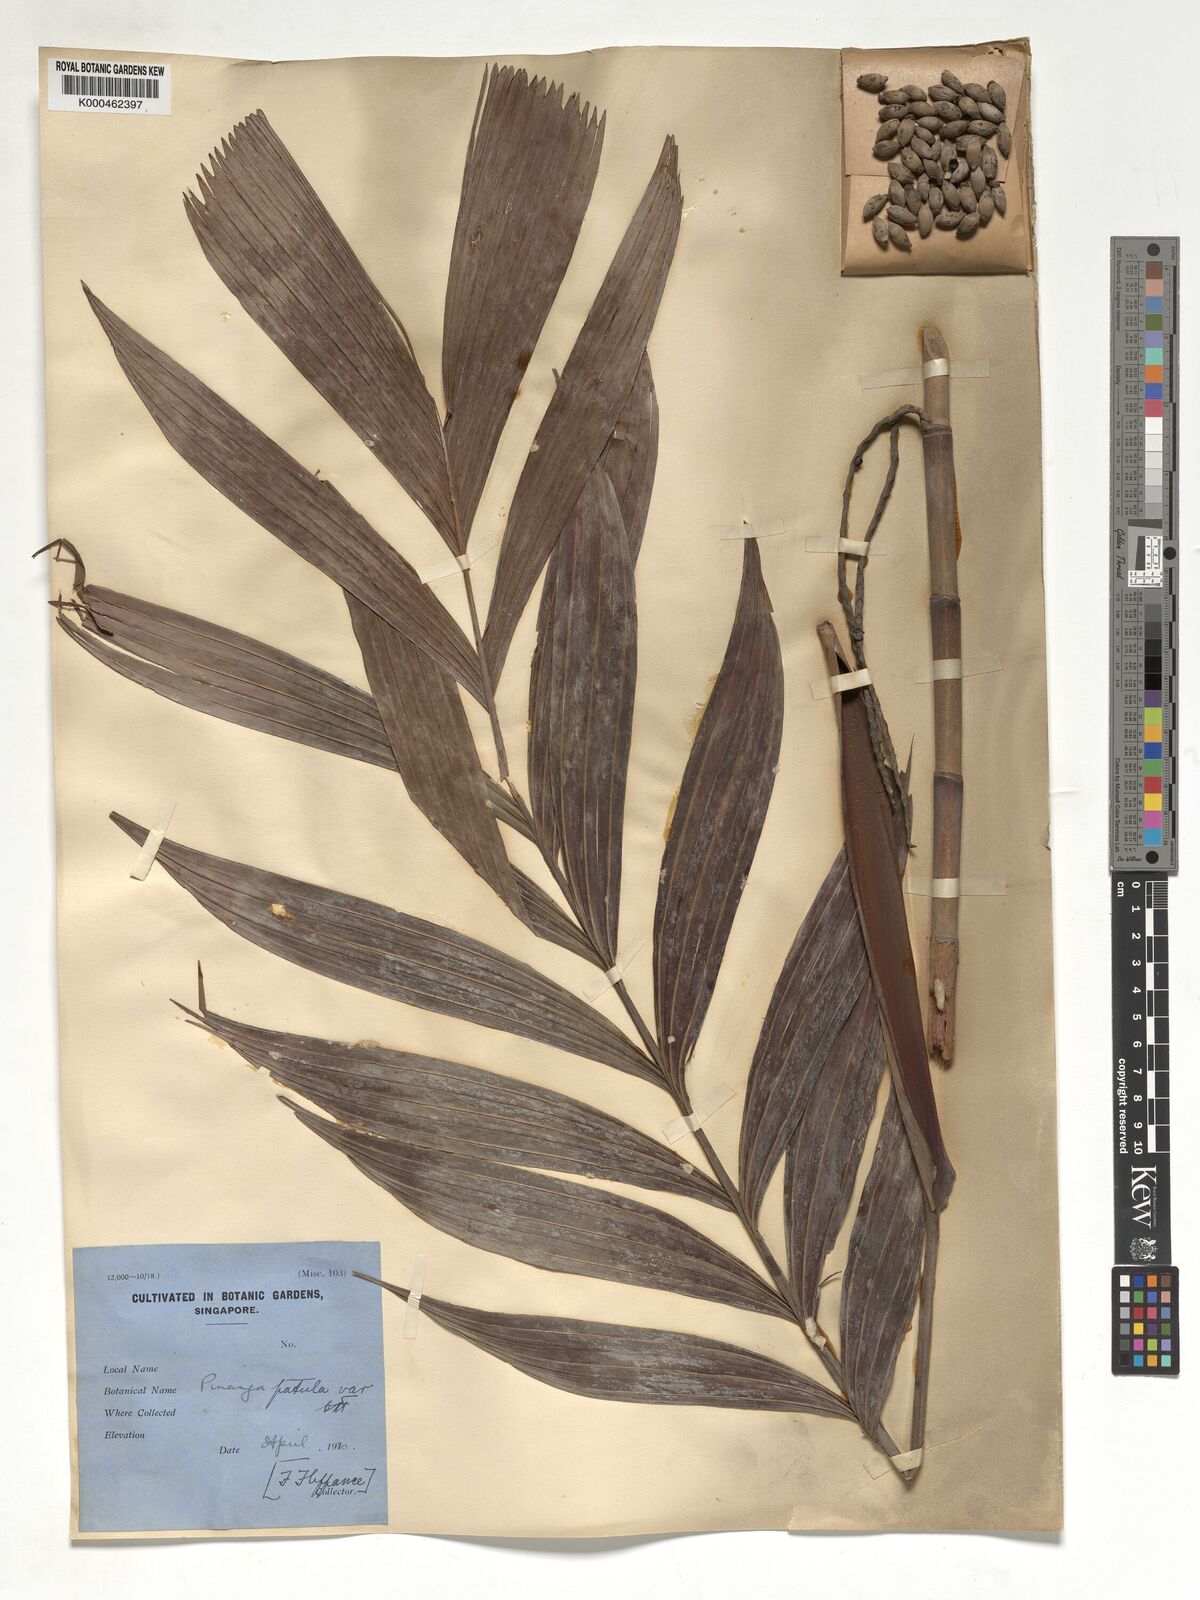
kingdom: Plantae
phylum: Tracheophyta
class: Liliopsida
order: Arecales
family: Arecaceae
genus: Pinanga
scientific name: Pinanga patula
